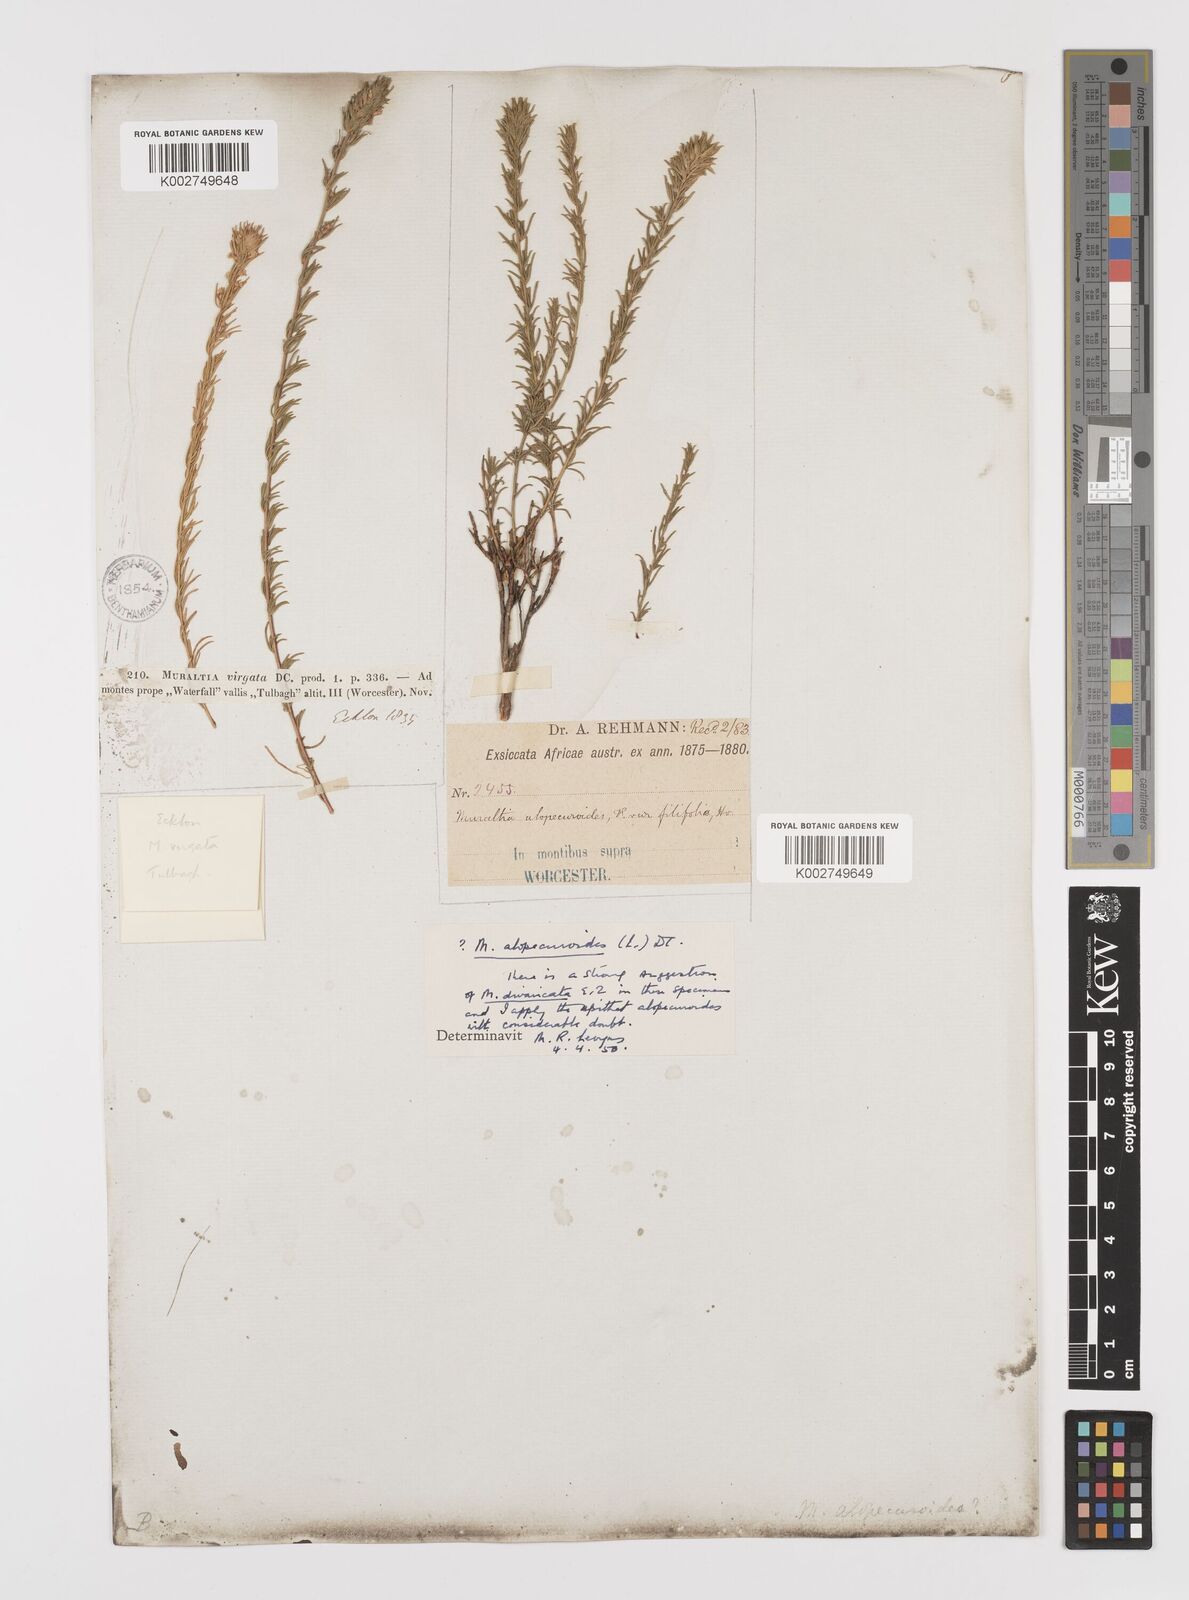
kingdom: Plantae
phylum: Tracheophyta
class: Magnoliopsida
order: Fabales
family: Polygalaceae
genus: Muraltia
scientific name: Muraltia alopecuroides
